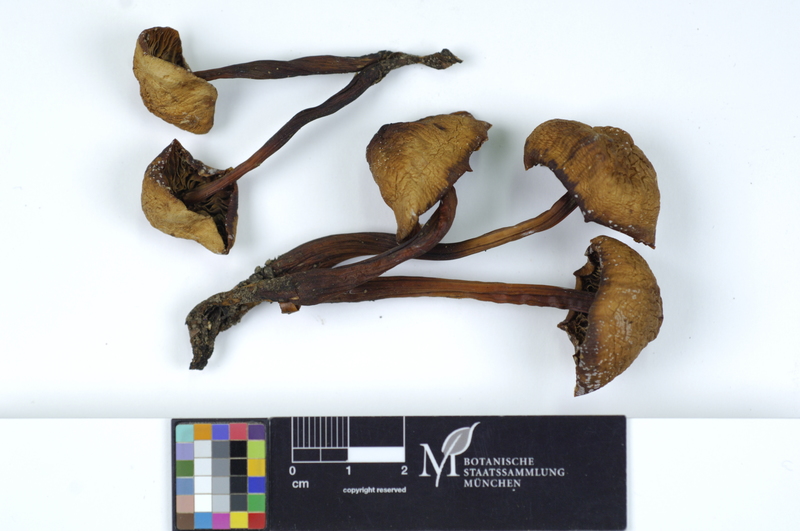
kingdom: Fungi
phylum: Basidiomycota
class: Agaricomycetes
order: Agaricales
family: Omphalotaceae
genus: Gymnopus
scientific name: Gymnopus fusipes
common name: Spindle shank
